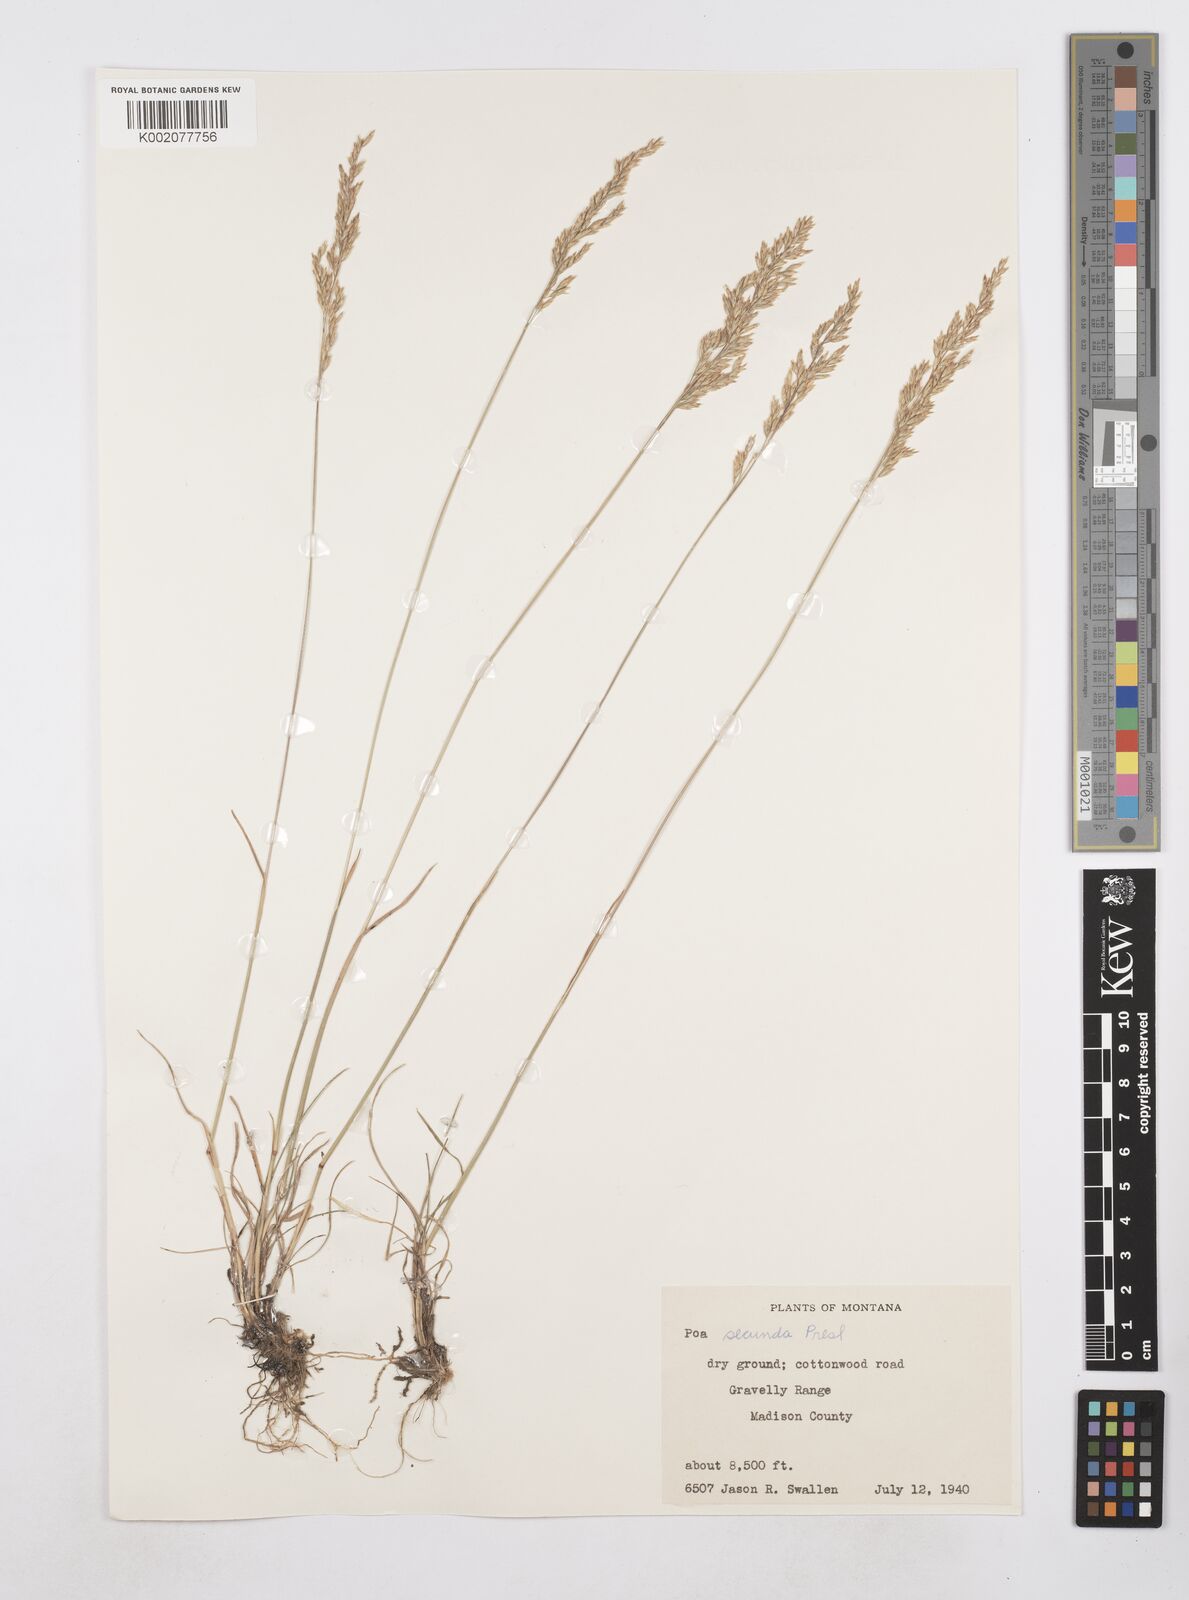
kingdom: Plantae
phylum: Tracheophyta
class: Liliopsida
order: Poales
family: Poaceae
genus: Poa
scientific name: Poa secunda
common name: Sandberg bluegrass
